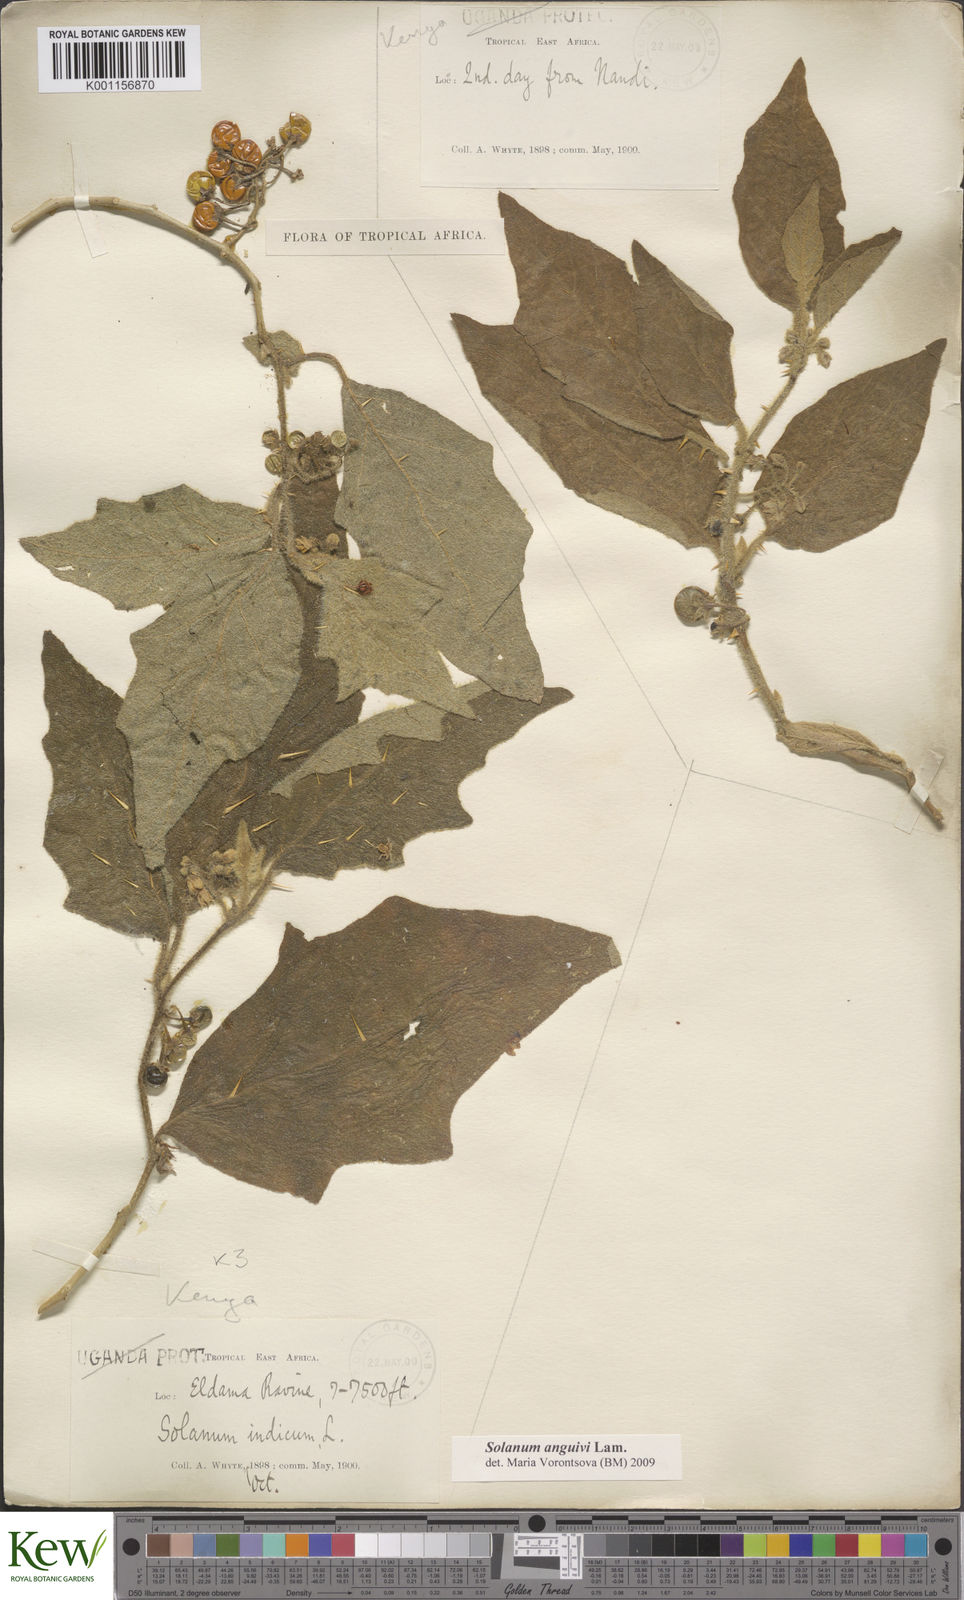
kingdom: Plantae
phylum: Tracheophyta
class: Magnoliopsida
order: Solanales
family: Solanaceae
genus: Solanum
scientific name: Solanum anguivi
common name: Forest bitterberry
